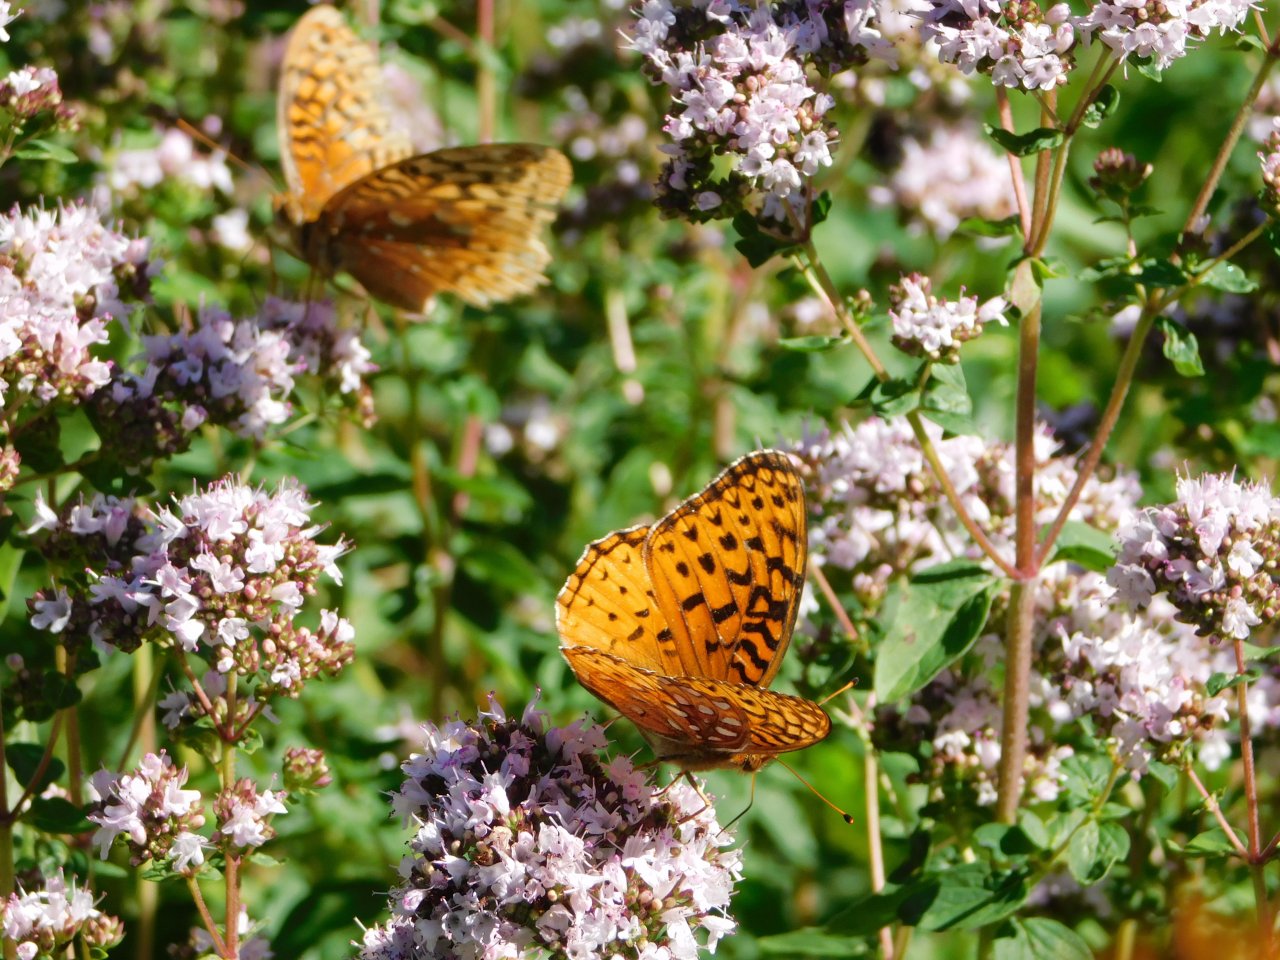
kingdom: Animalia
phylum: Arthropoda
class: Insecta
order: Lepidoptera
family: Nymphalidae
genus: Speyeria
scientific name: Speyeria aphrodite
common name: Aphrodite Fritillary
